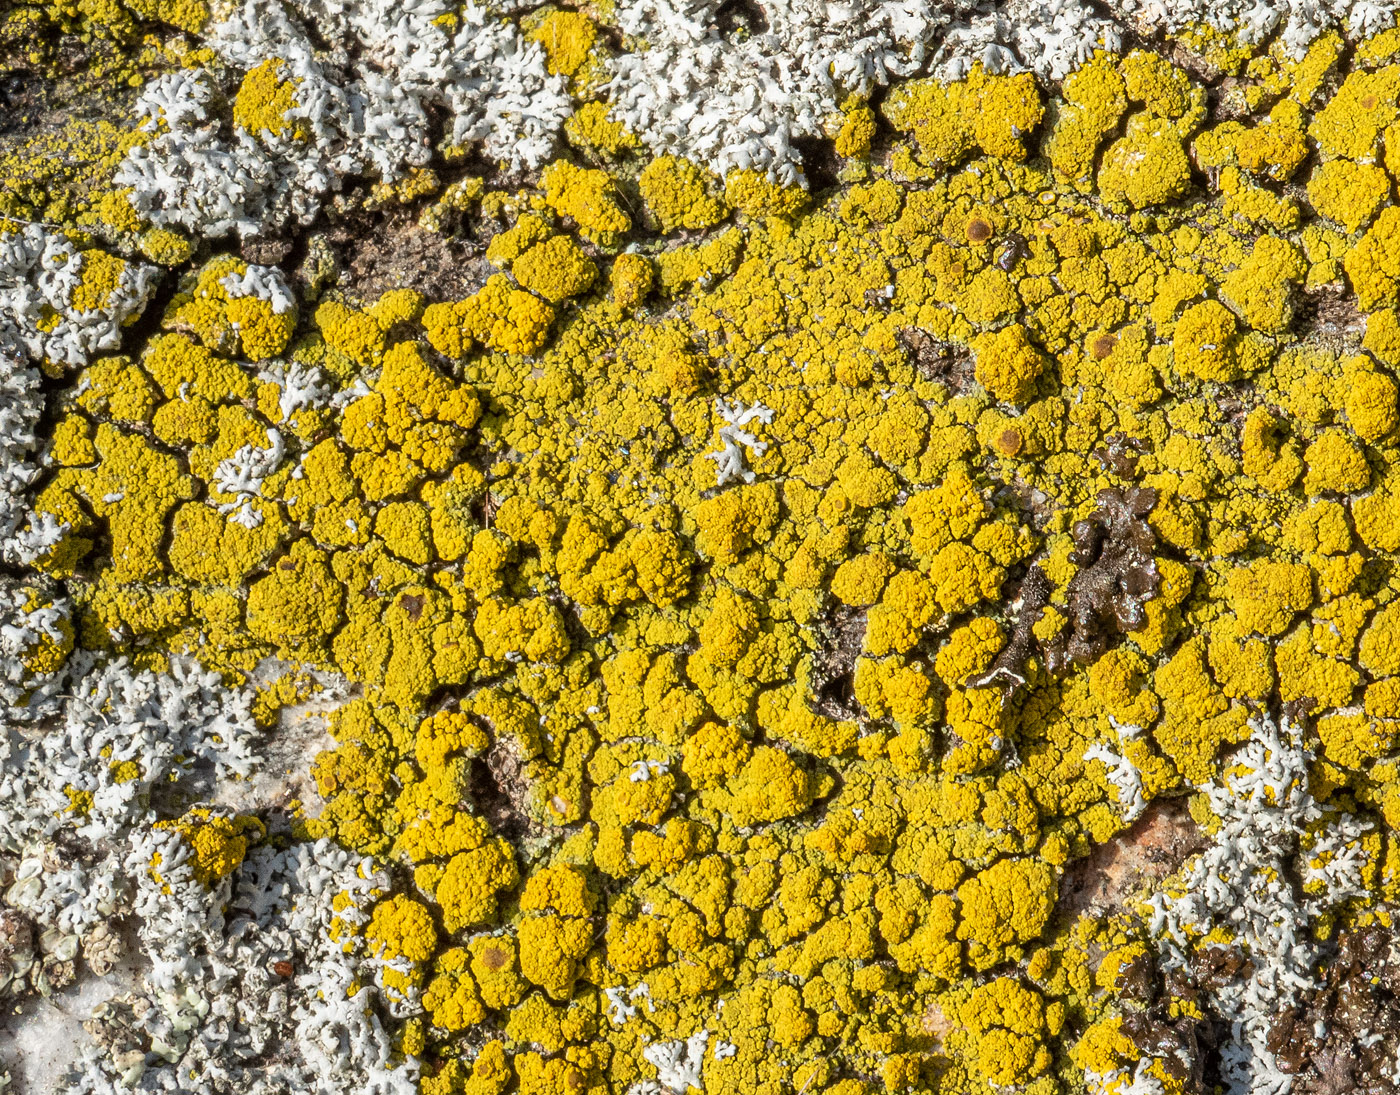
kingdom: Fungi
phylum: Ascomycota
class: Candelariomycetes
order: Candelariales
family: Candelariaceae
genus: Candelariella
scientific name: Candelariella vitellina
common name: almindelig æggeblommelav
